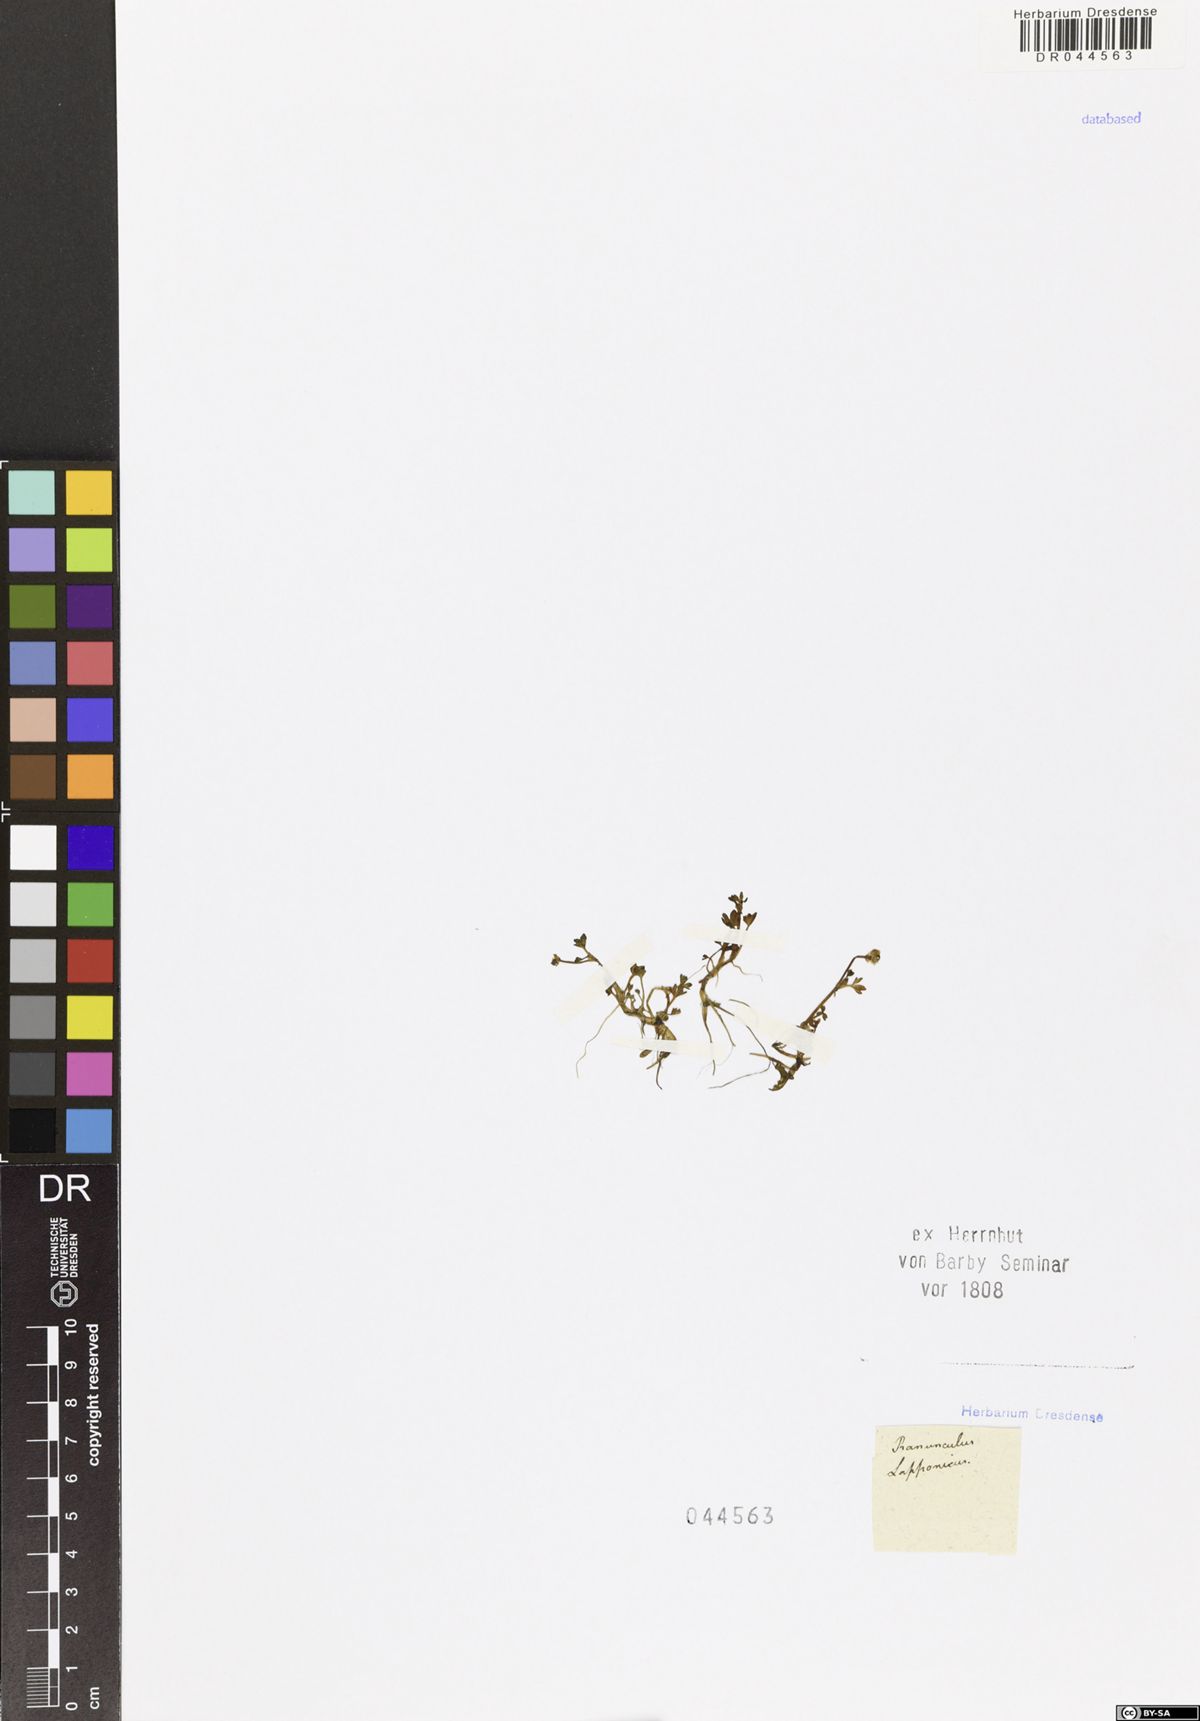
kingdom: Plantae
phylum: Tracheophyta
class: Magnoliopsida
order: Ranunculales
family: Ranunculaceae
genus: Coptidium
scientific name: Coptidium lapponicum
